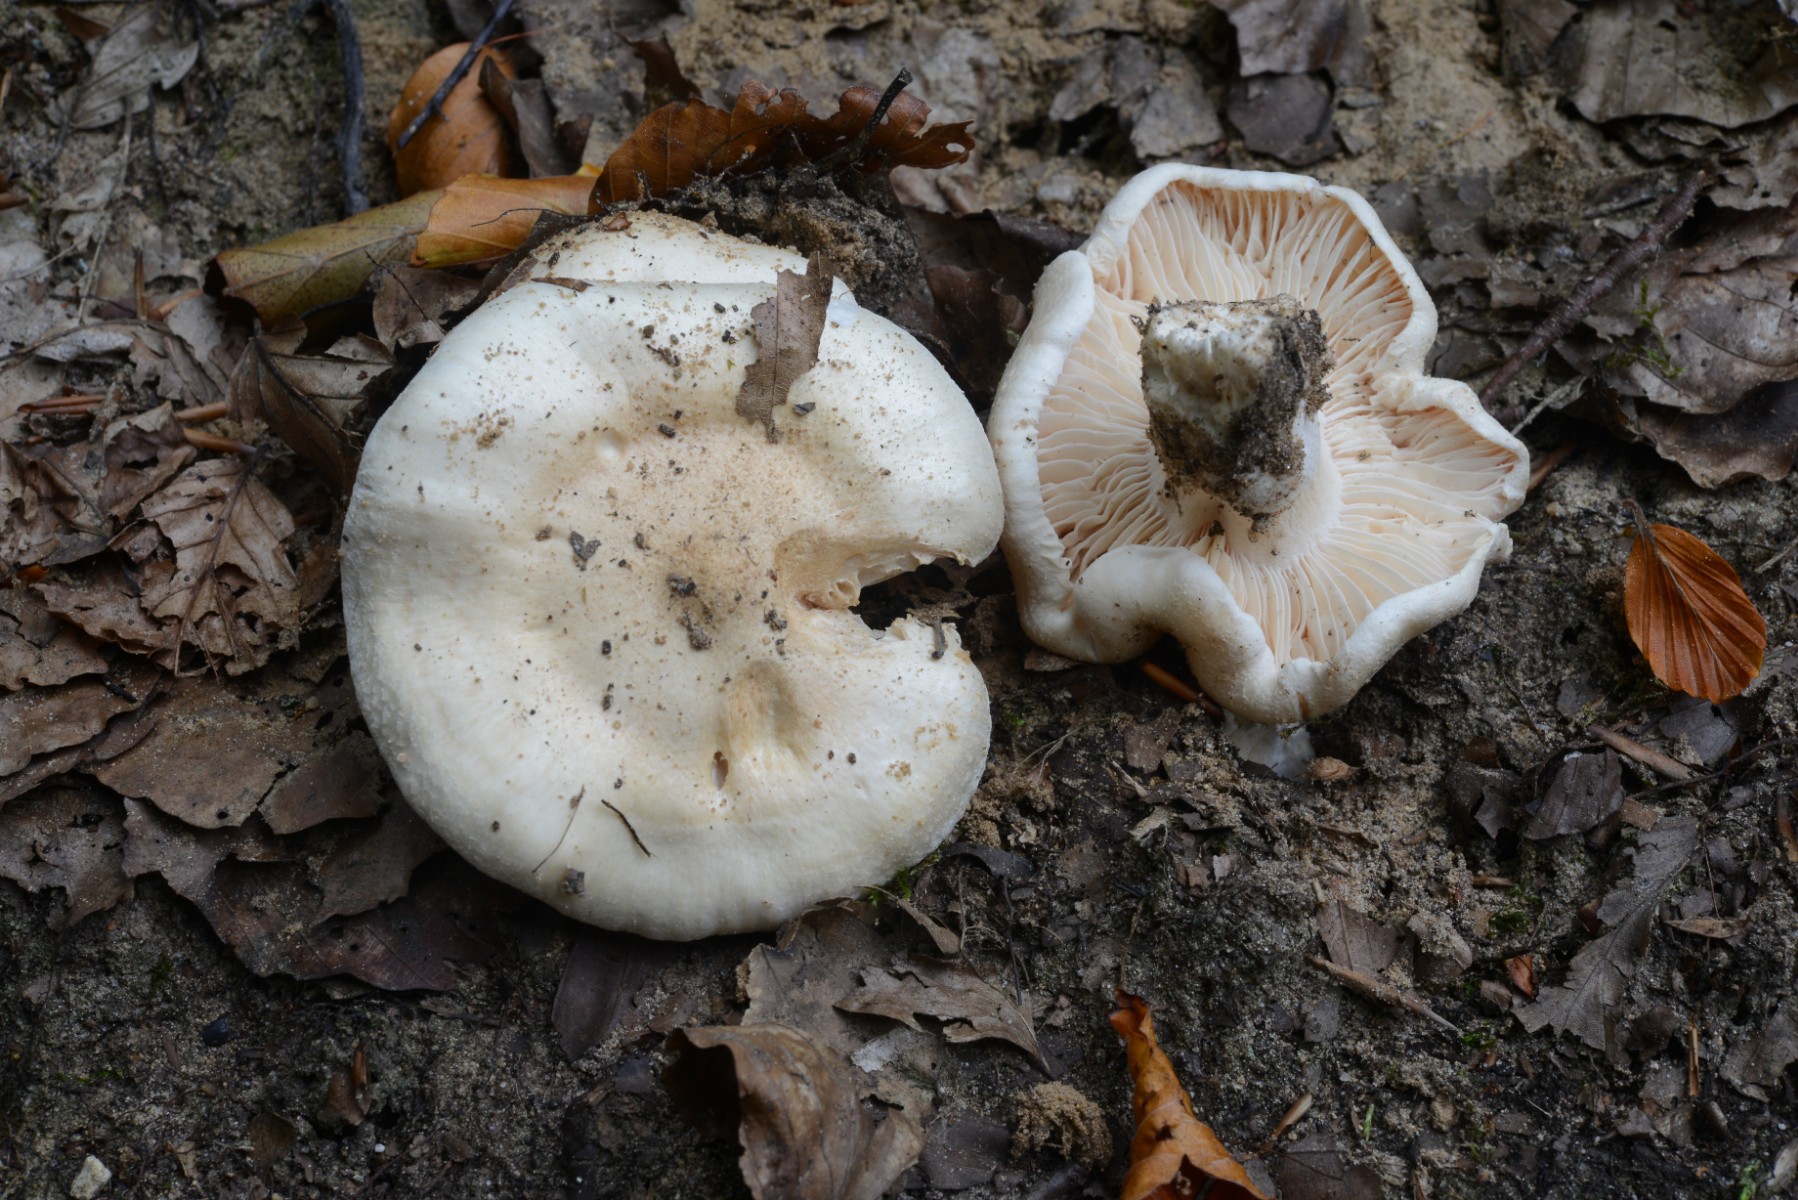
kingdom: Fungi
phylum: Basidiomycota
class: Agaricomycetes
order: Agaricales
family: Hygrophoraceae
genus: Hygrophorus
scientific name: Hygrophorus penarius
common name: spiselig sneglehat
